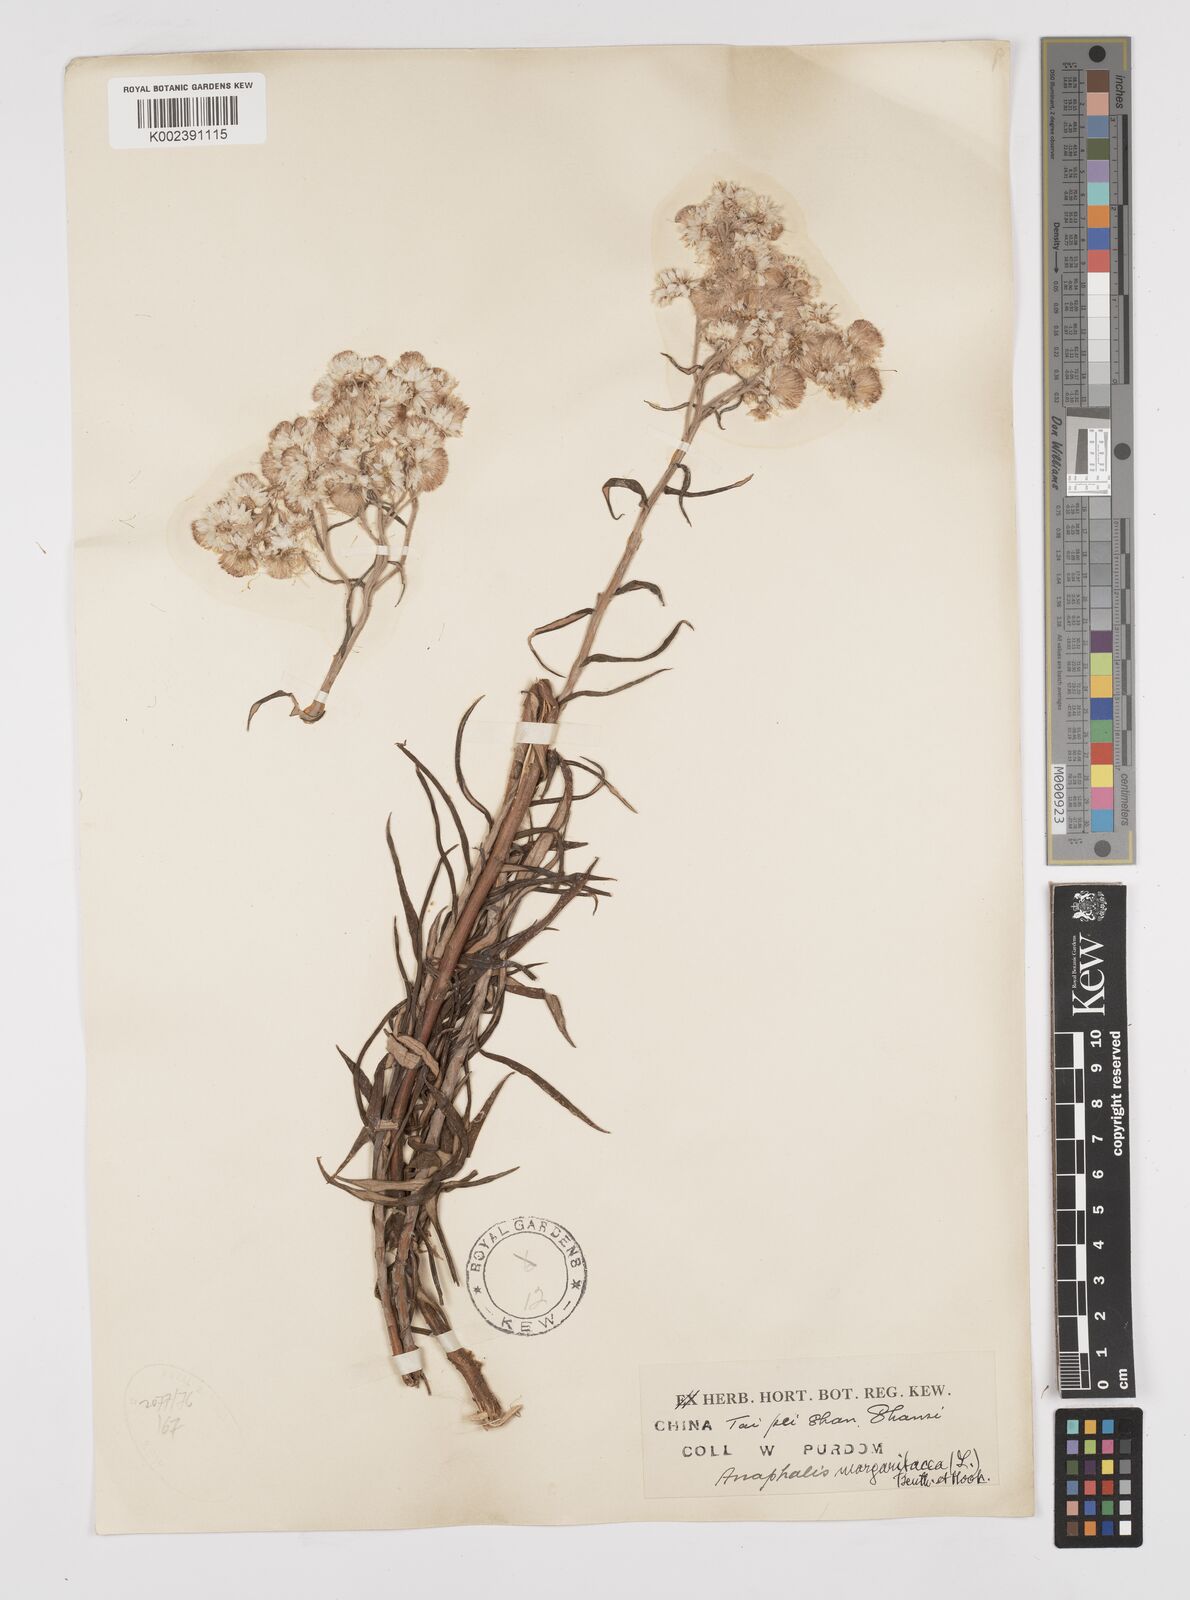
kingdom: Plantae
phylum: Tracheophyta
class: Magnoliopsida
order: Asterales
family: Asteraceae
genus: Anaphalis
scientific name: Anaphalis margaritacea
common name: Pearly everlasting
